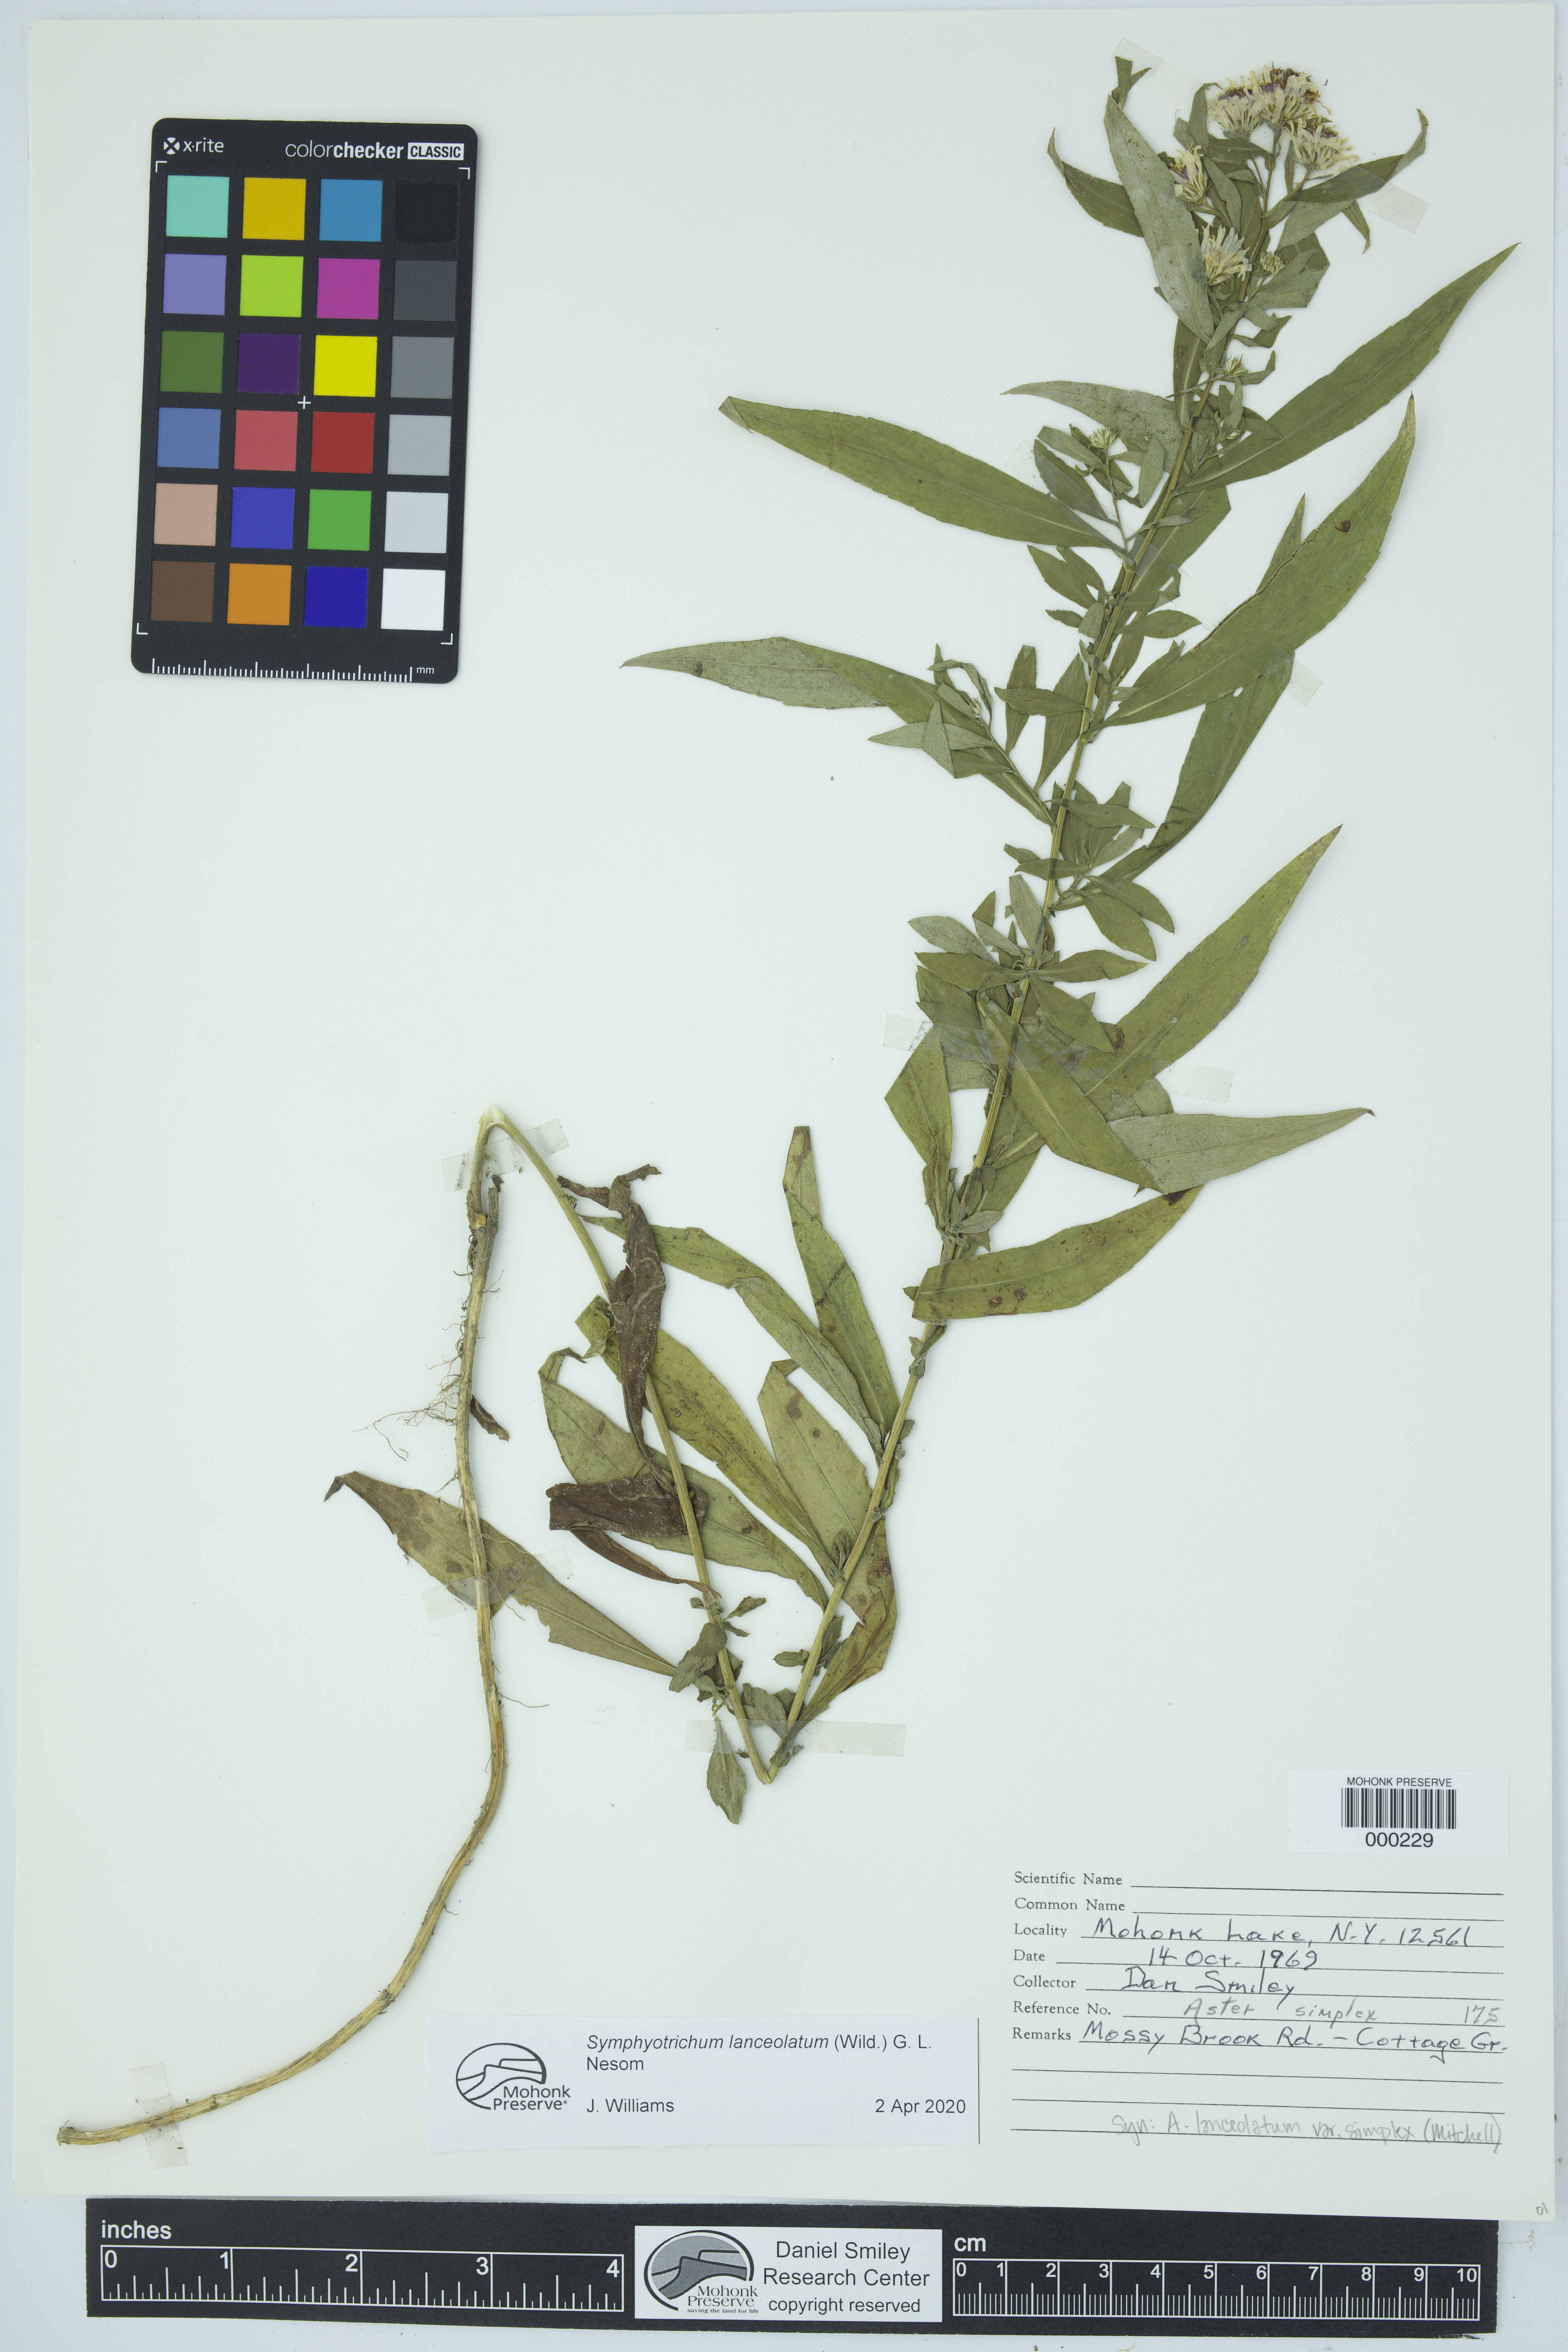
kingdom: Plantae
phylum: Tracheophyta
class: Magnoliopsida
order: Asterales
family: Asteraceae
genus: Symphyotrichum
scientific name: Symphyotrichum lanceolatum
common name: Panicled aster
